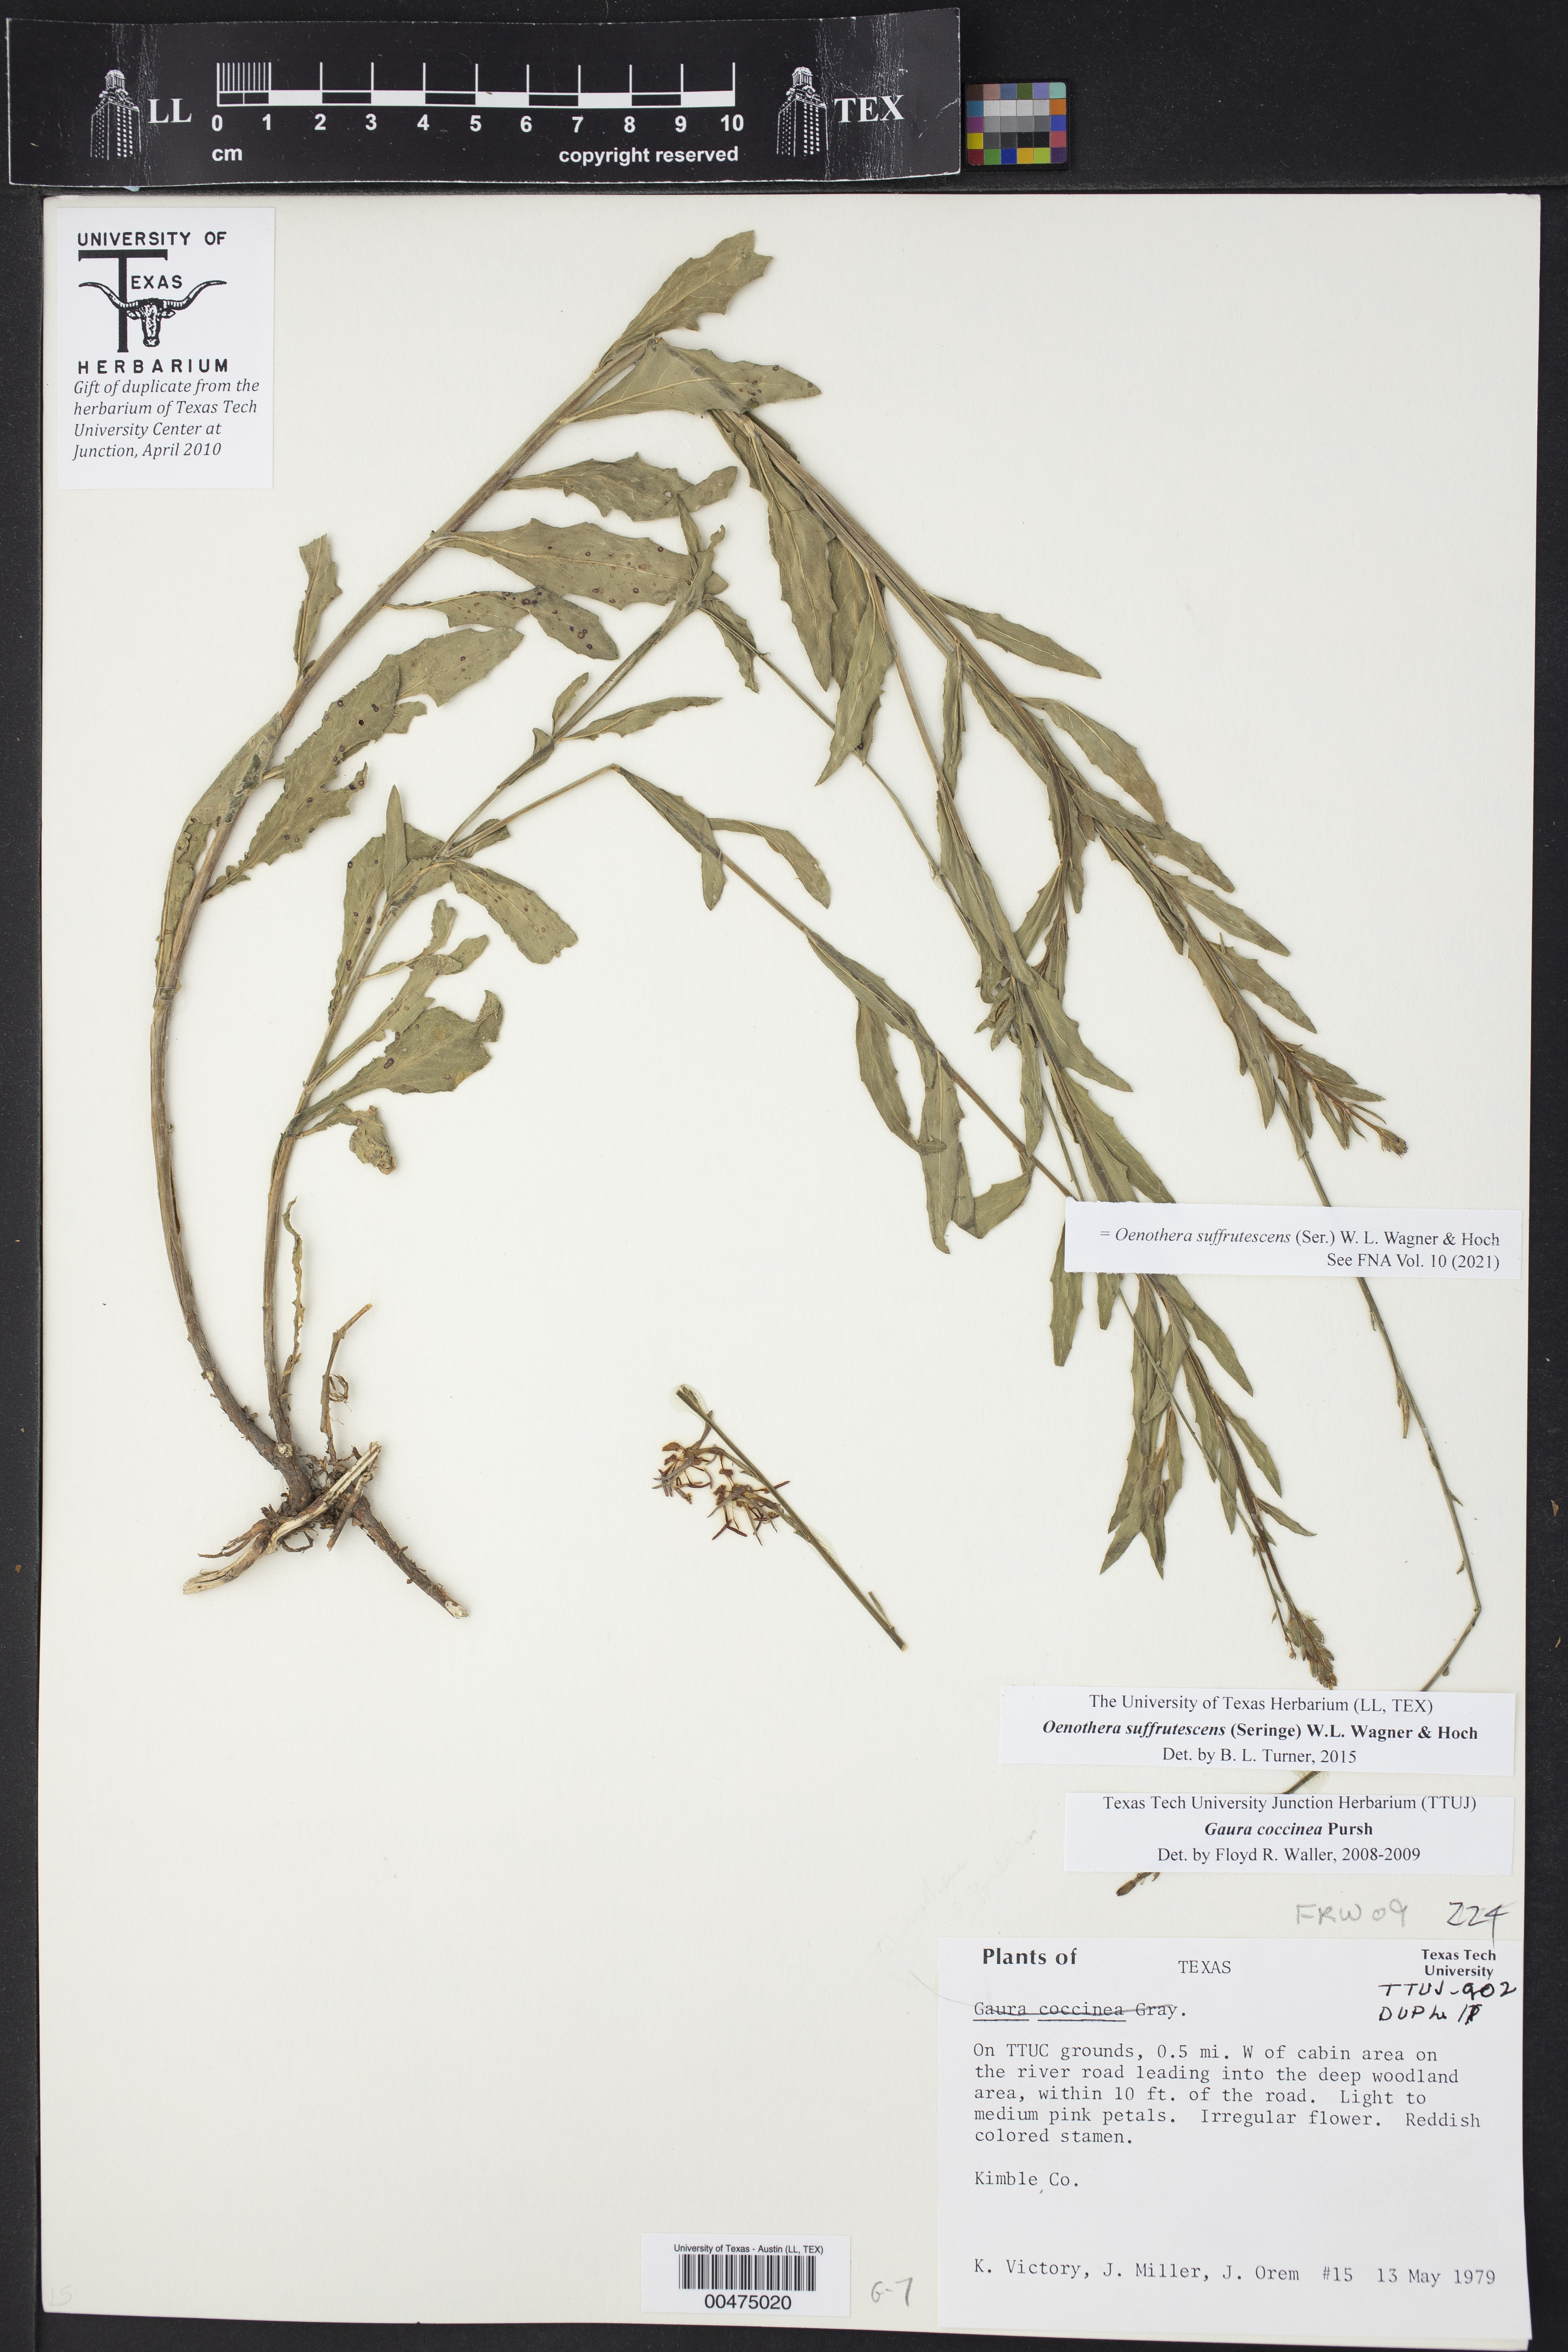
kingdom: Plantae
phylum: Tracheophyta
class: Magnoliopsida
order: Myrtales
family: Onagraceae
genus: Oenothera
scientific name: Oenothera suffrutescens
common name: Scarlet beeblossom
